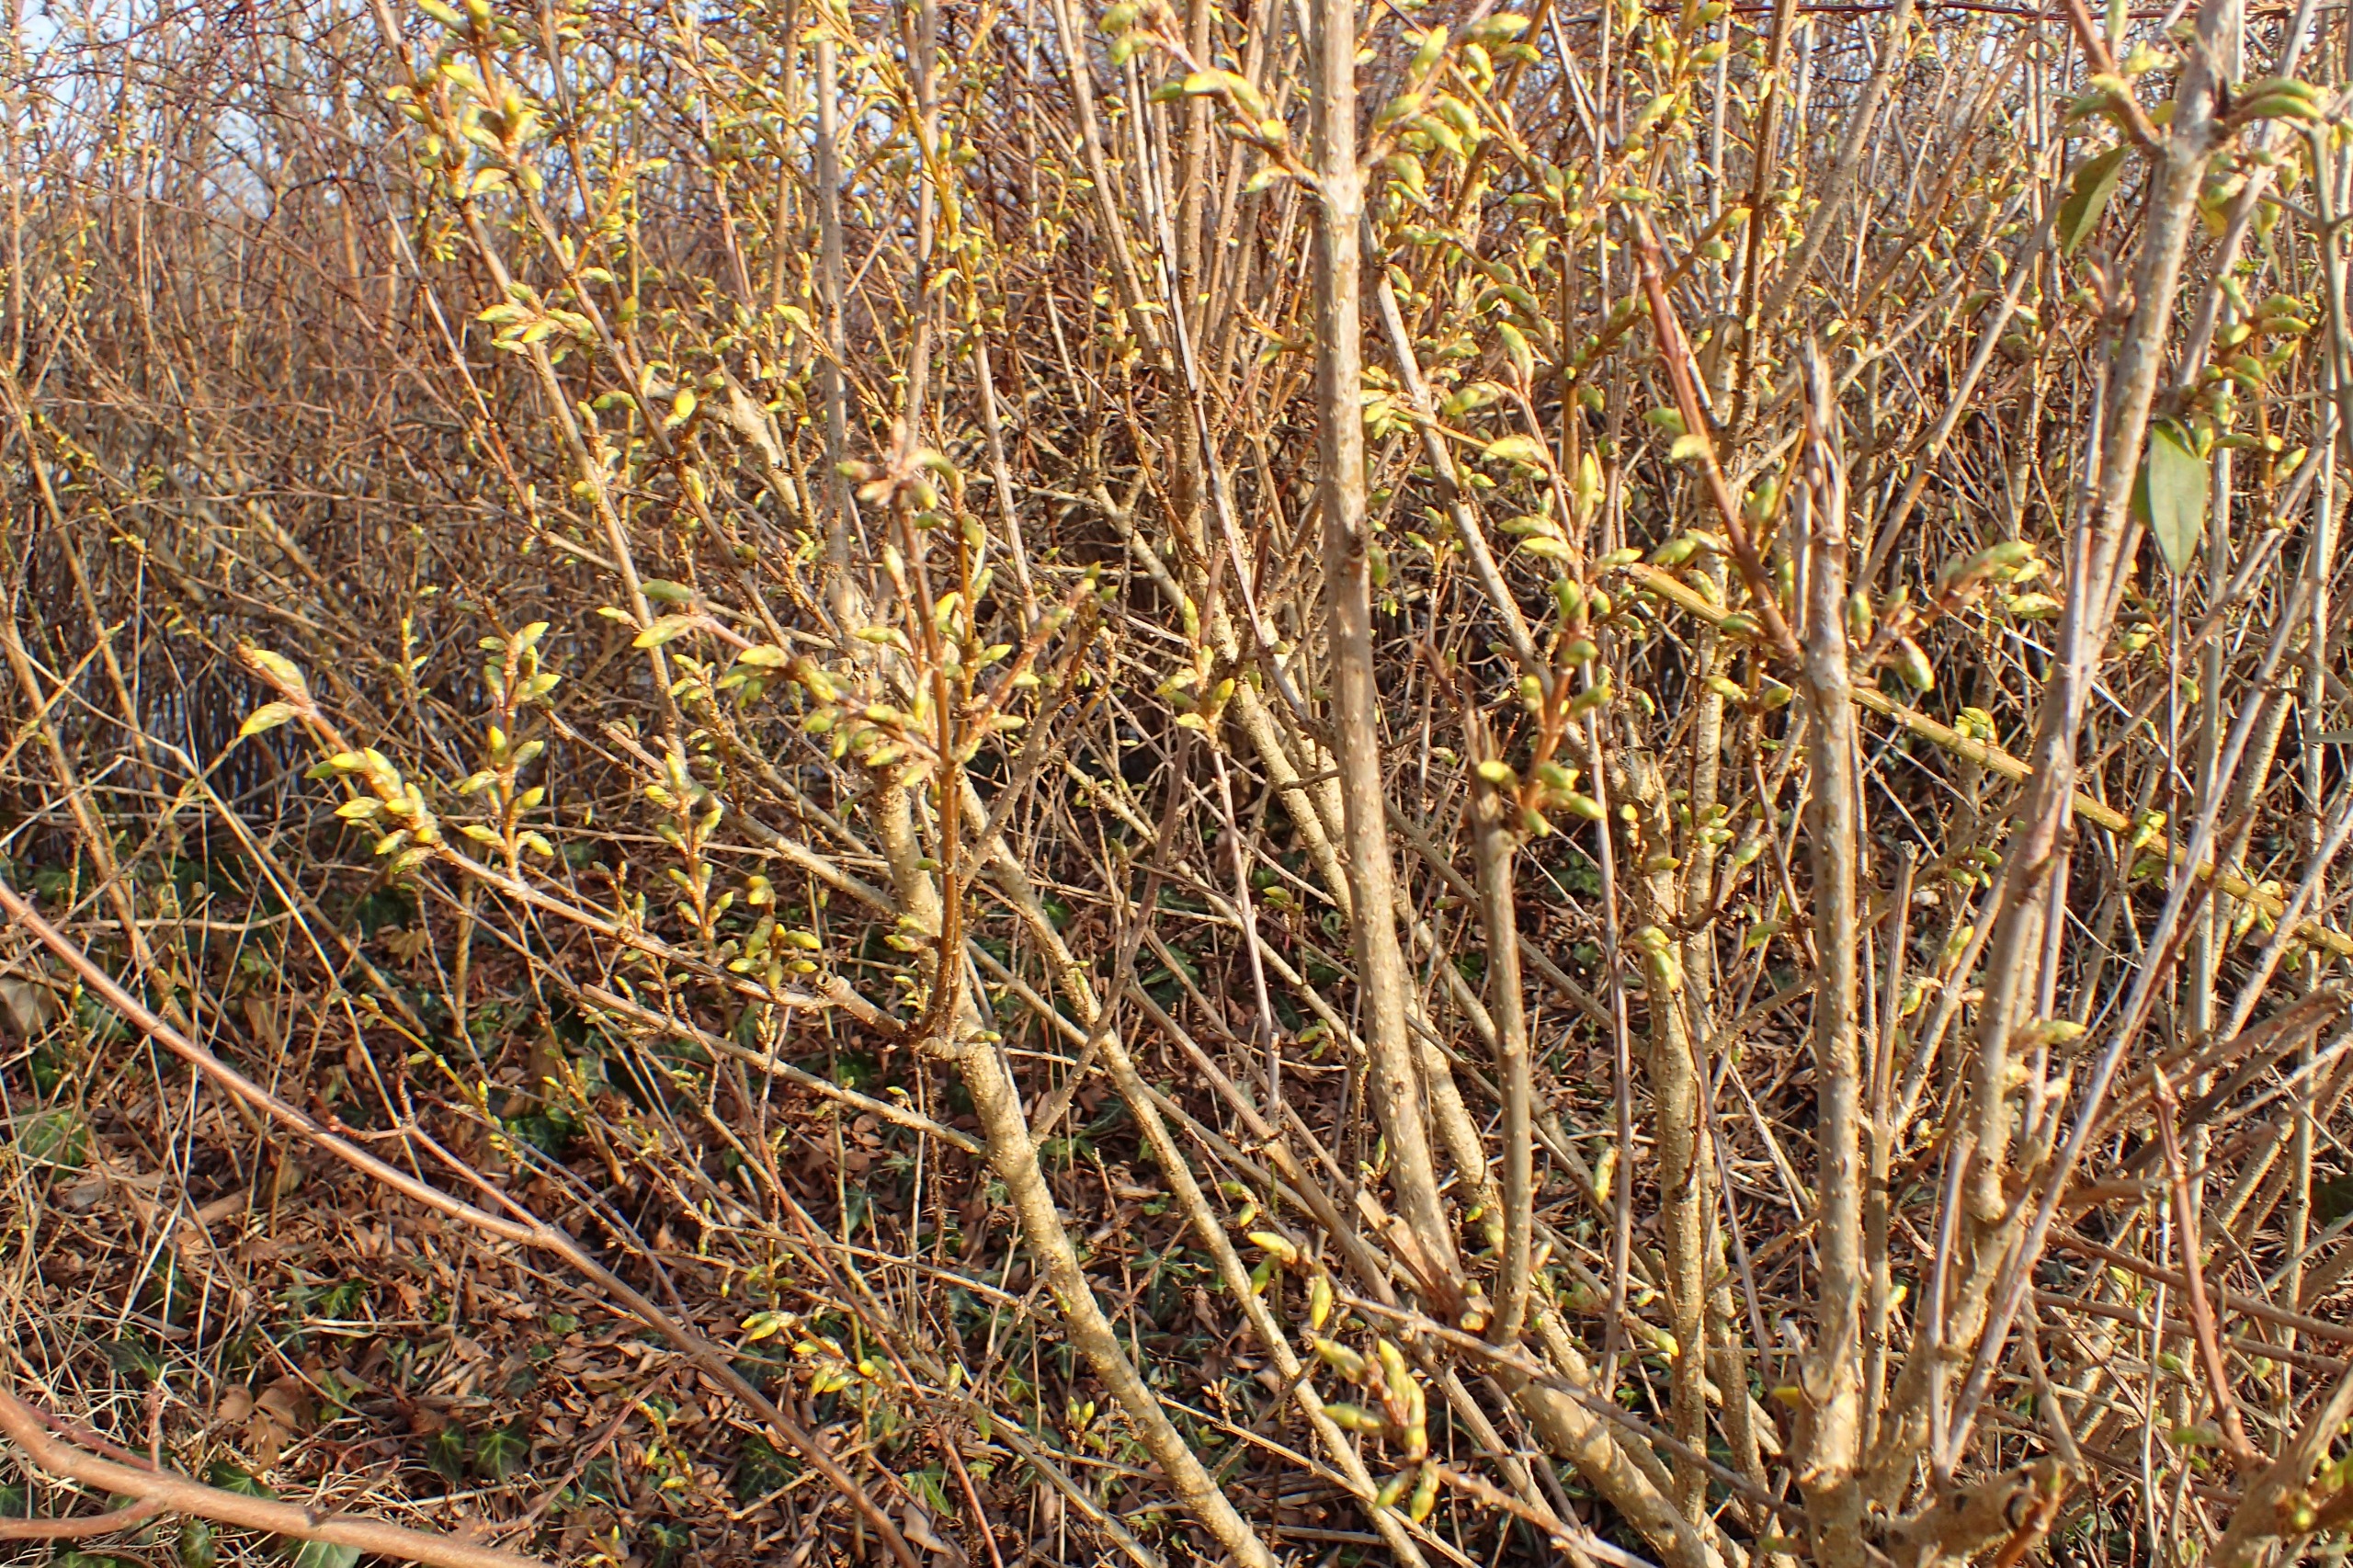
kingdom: Plantae
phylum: Tracheophyta
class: Magnoliopsida
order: Lamiales
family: Oleaceae
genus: Forsythia
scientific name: Forsythia intermedia
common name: Have-forsythia
